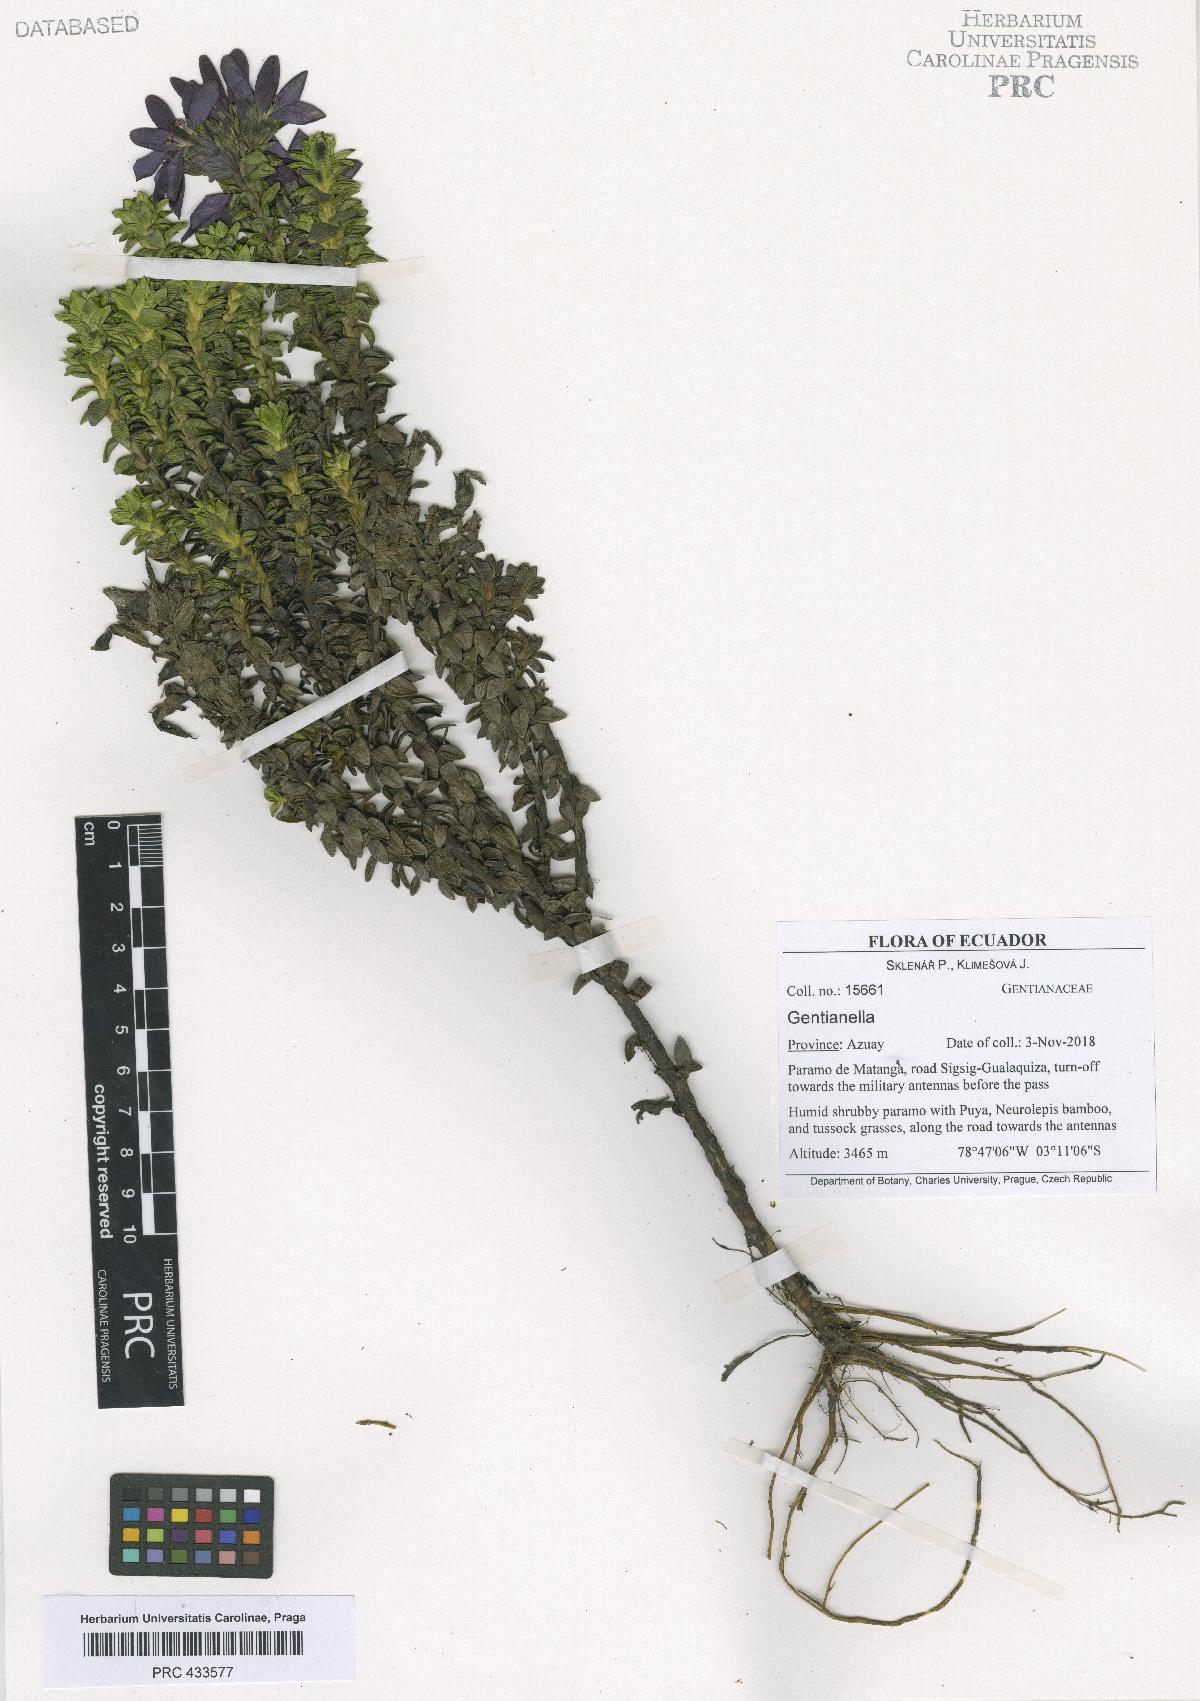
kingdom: Plantae
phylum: Tracheophyta
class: Magnoliopsida
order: Gentianales
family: Gentianaceae
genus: Gentianella
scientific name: Gentianella rapunculoides
